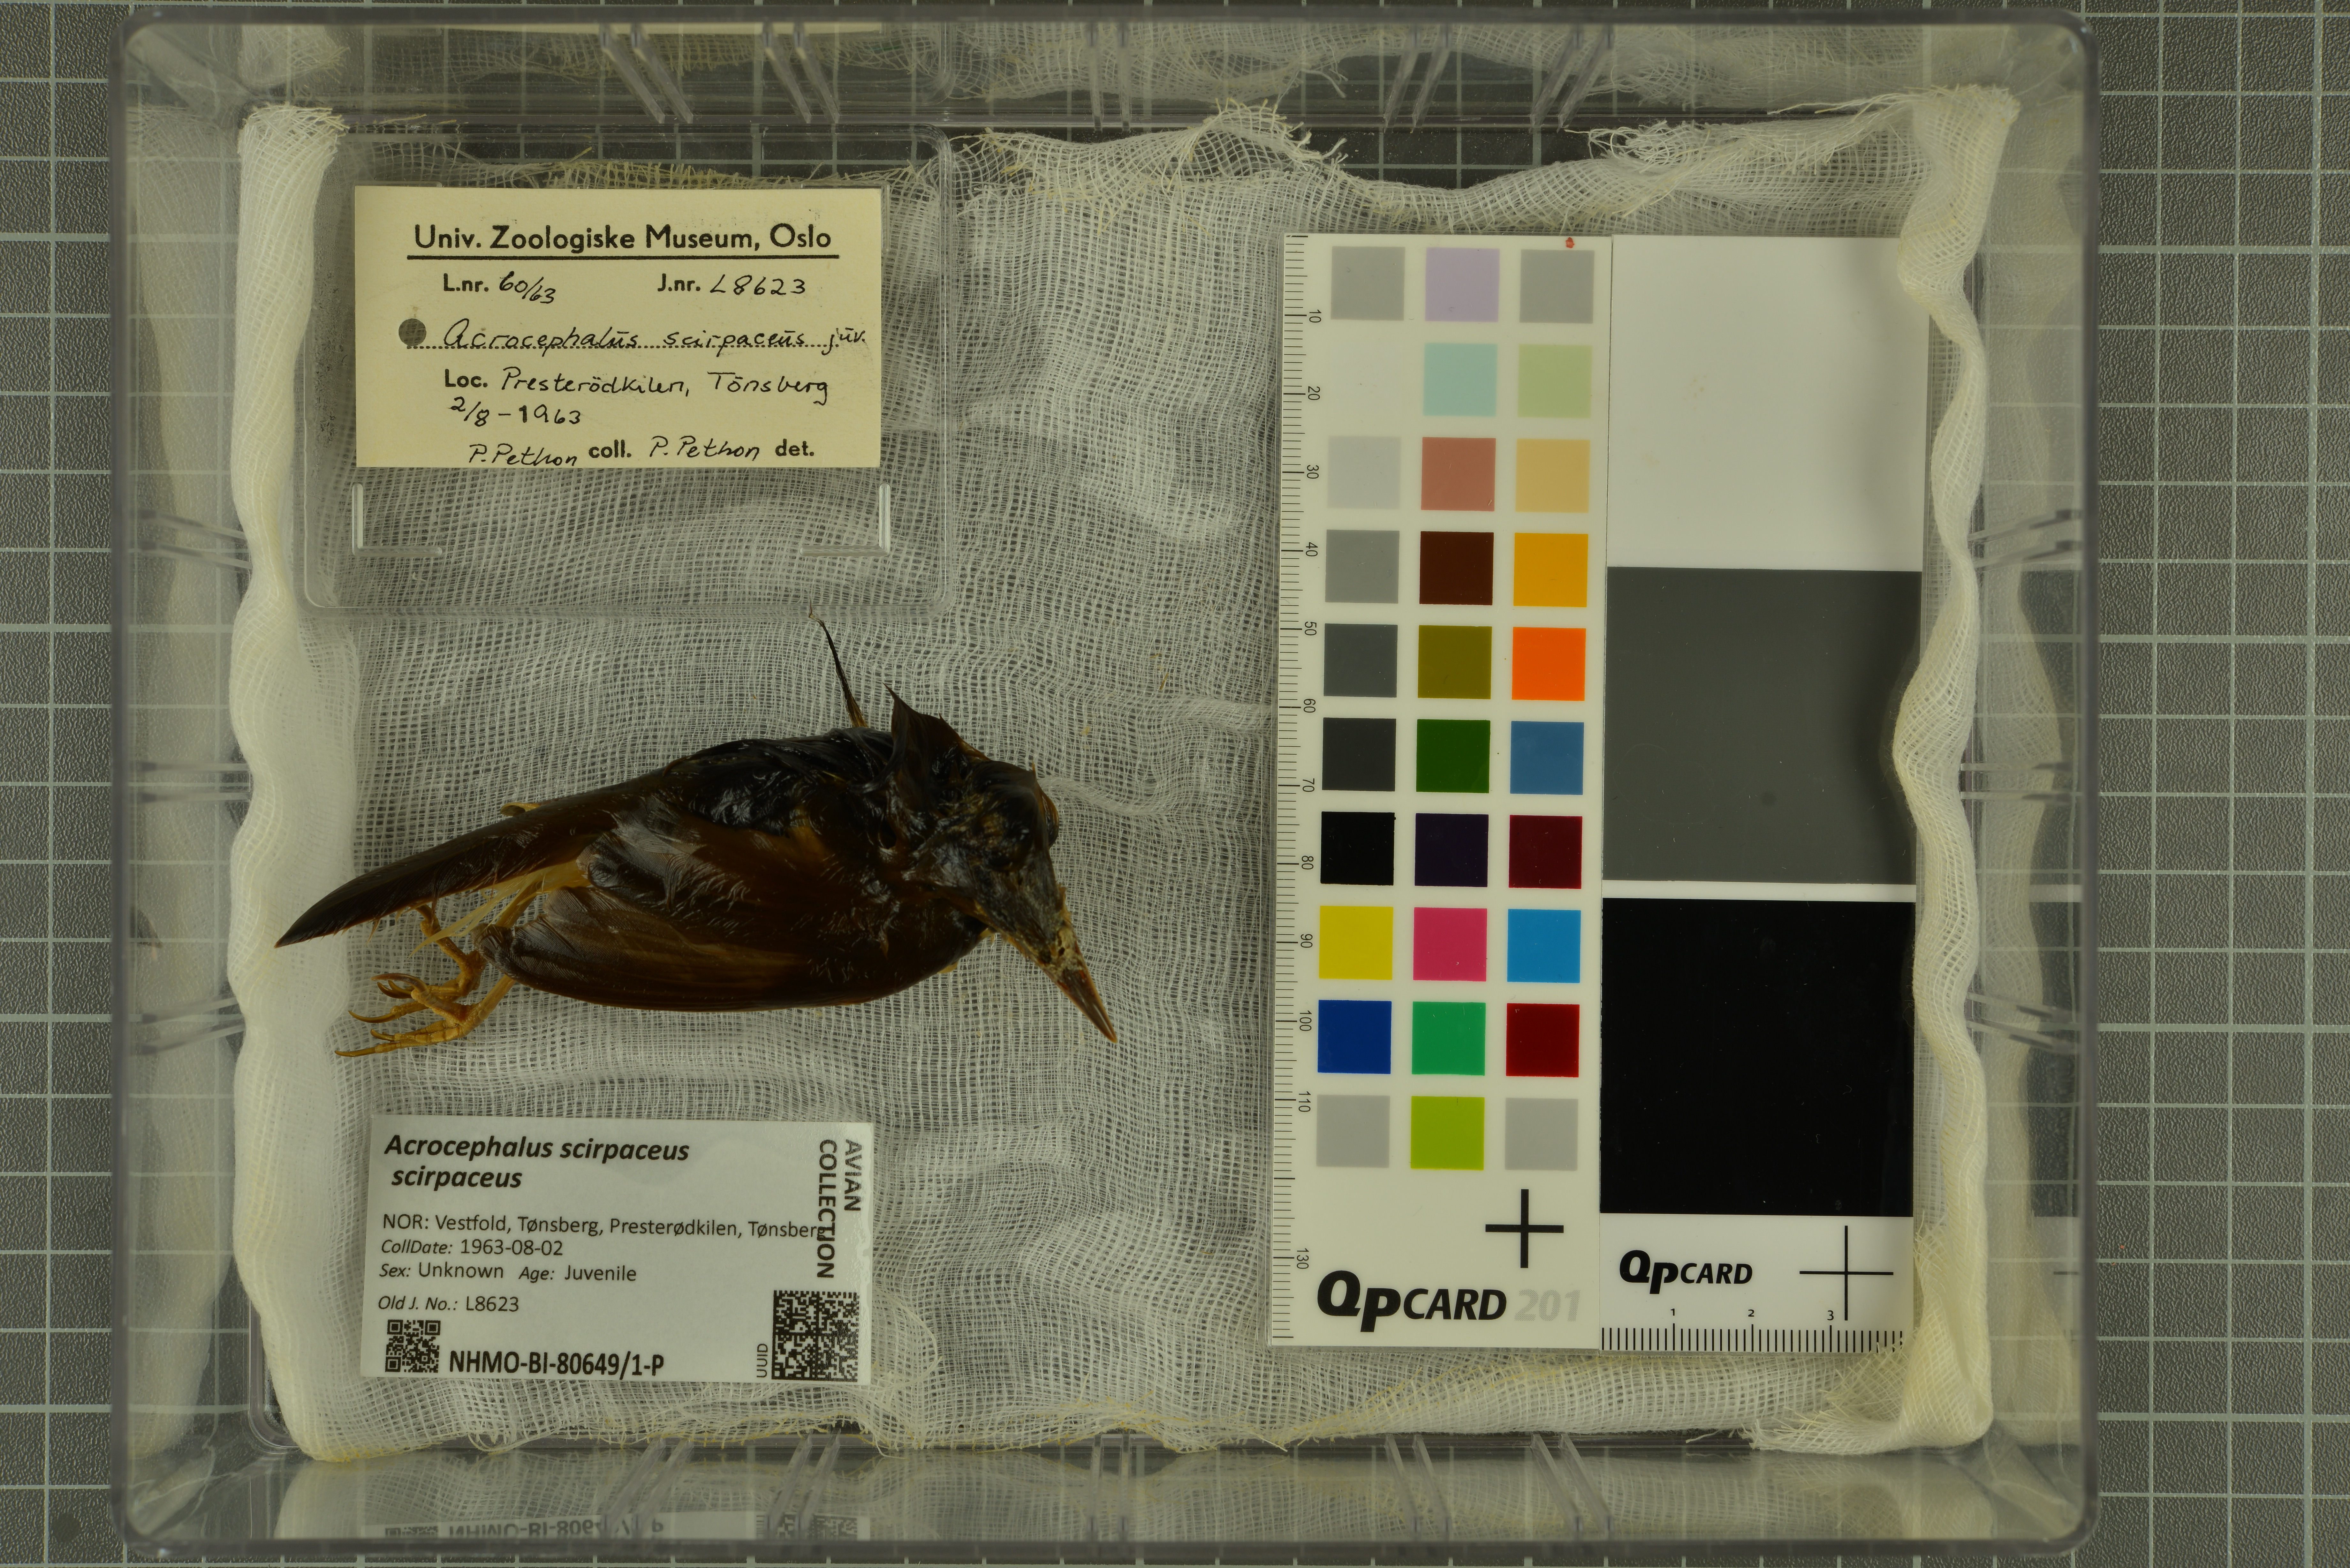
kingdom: Animalia
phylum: Chordata
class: Aves
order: Passeriformes
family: Acrocephalidae
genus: Acrocephalus
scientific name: Acrocephalus scirpaceus
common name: Eurasian reed warbler
